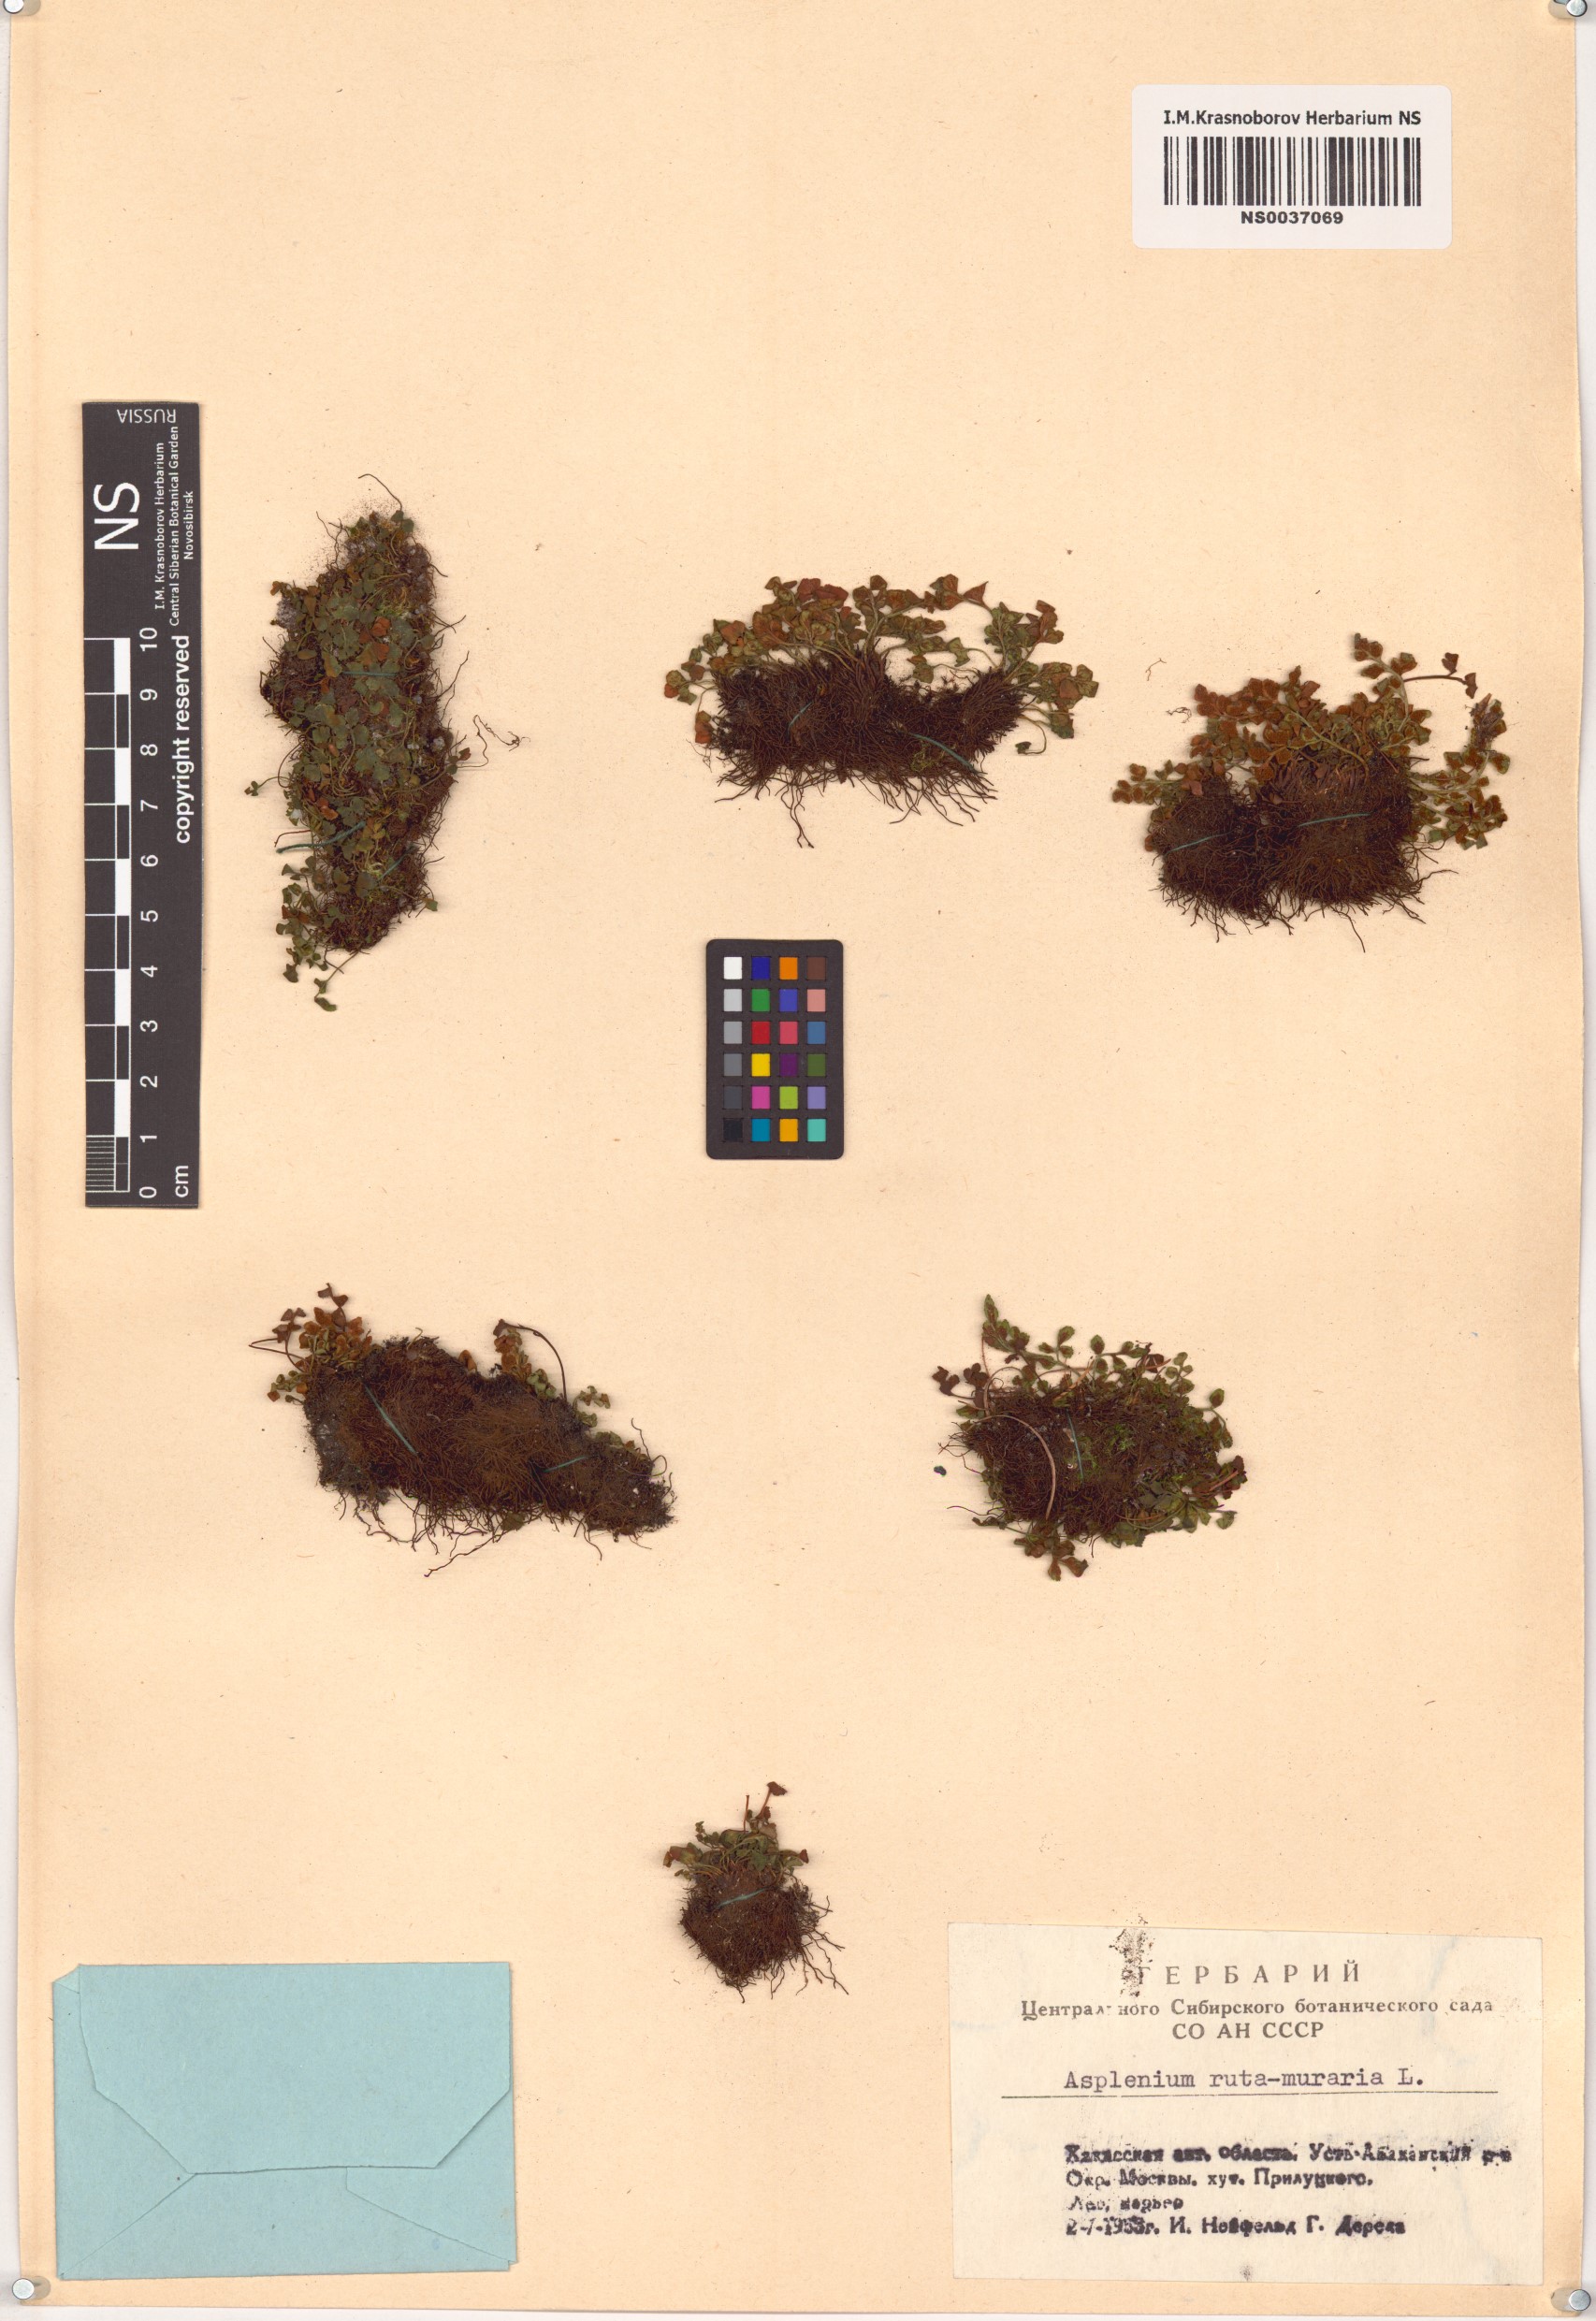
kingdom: Plantae
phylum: Tracheophyta
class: Polypodiopsida
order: Polypodiales
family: Aspleniaceae
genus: Asplenium
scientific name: Asplenium ruta-muraria
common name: Wall-rue
